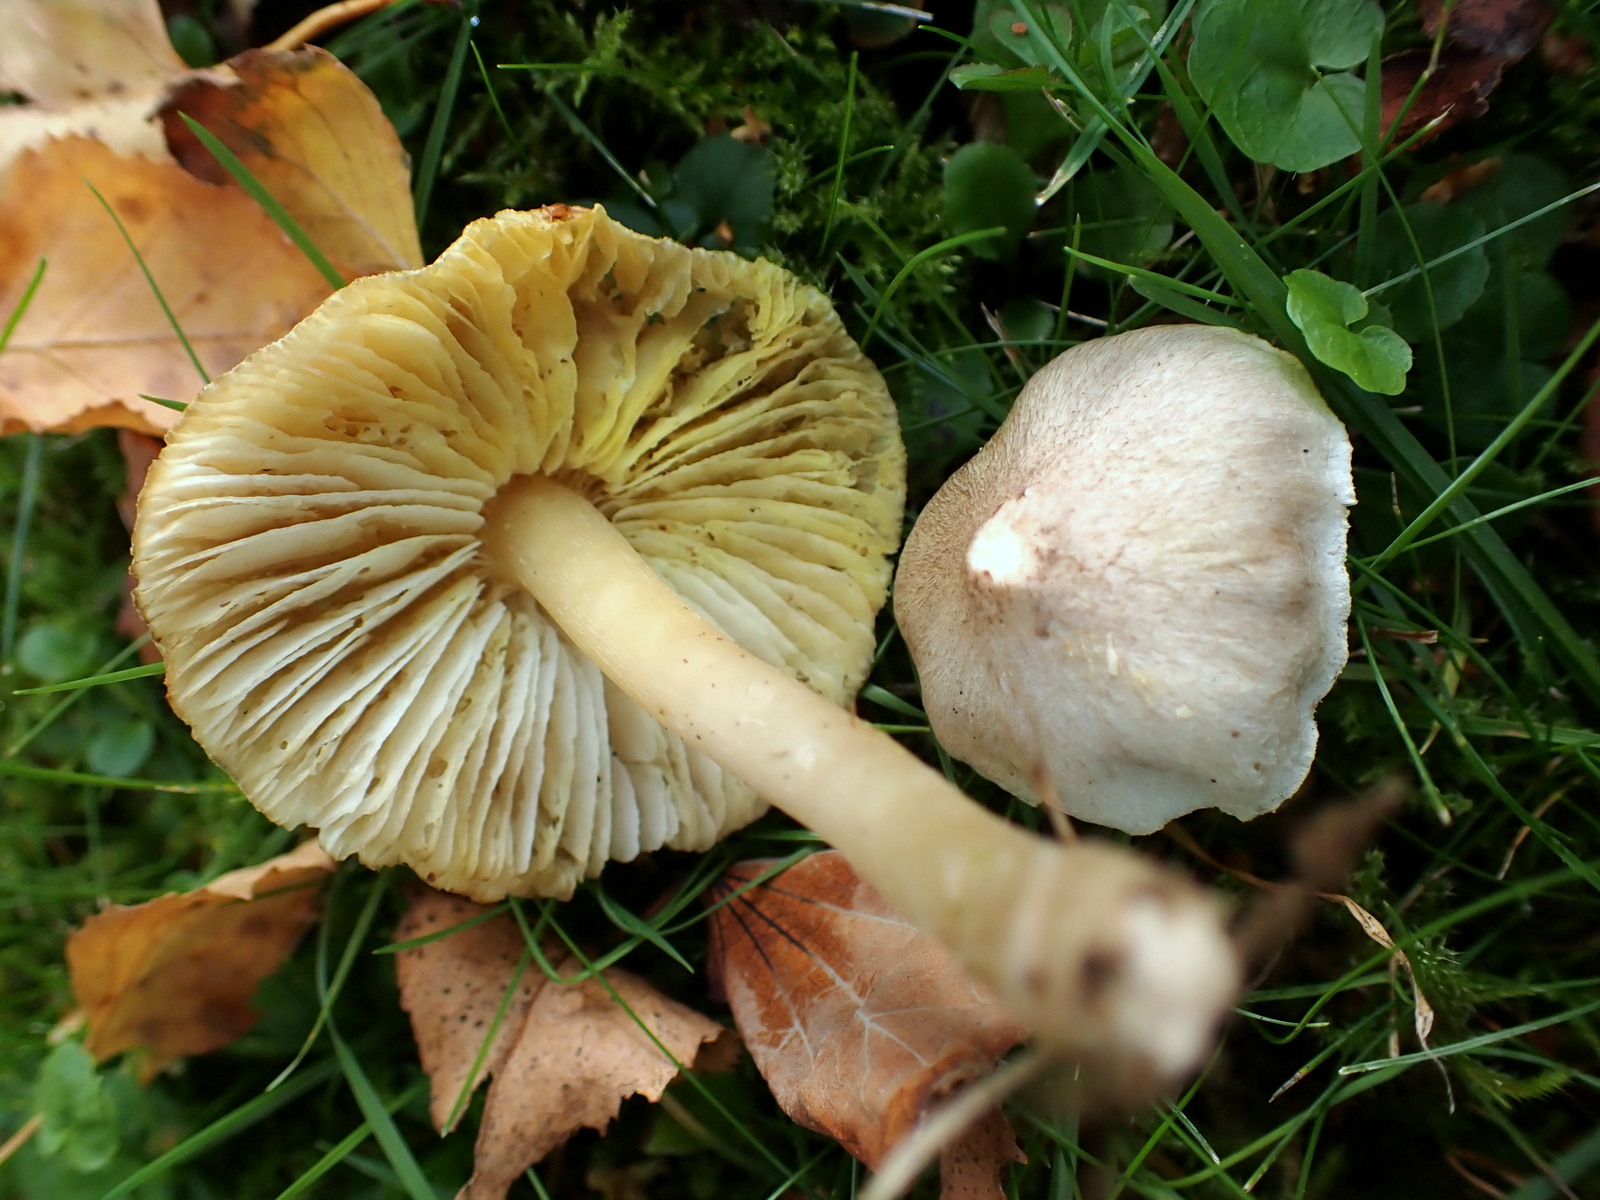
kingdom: Fungi
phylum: Basidiomycota
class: Agaricomycetes
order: Agaricales
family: Tricholomataceae
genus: Tricholoma
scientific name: Tricholoma scalpturatum
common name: gulplettet ridderhat
